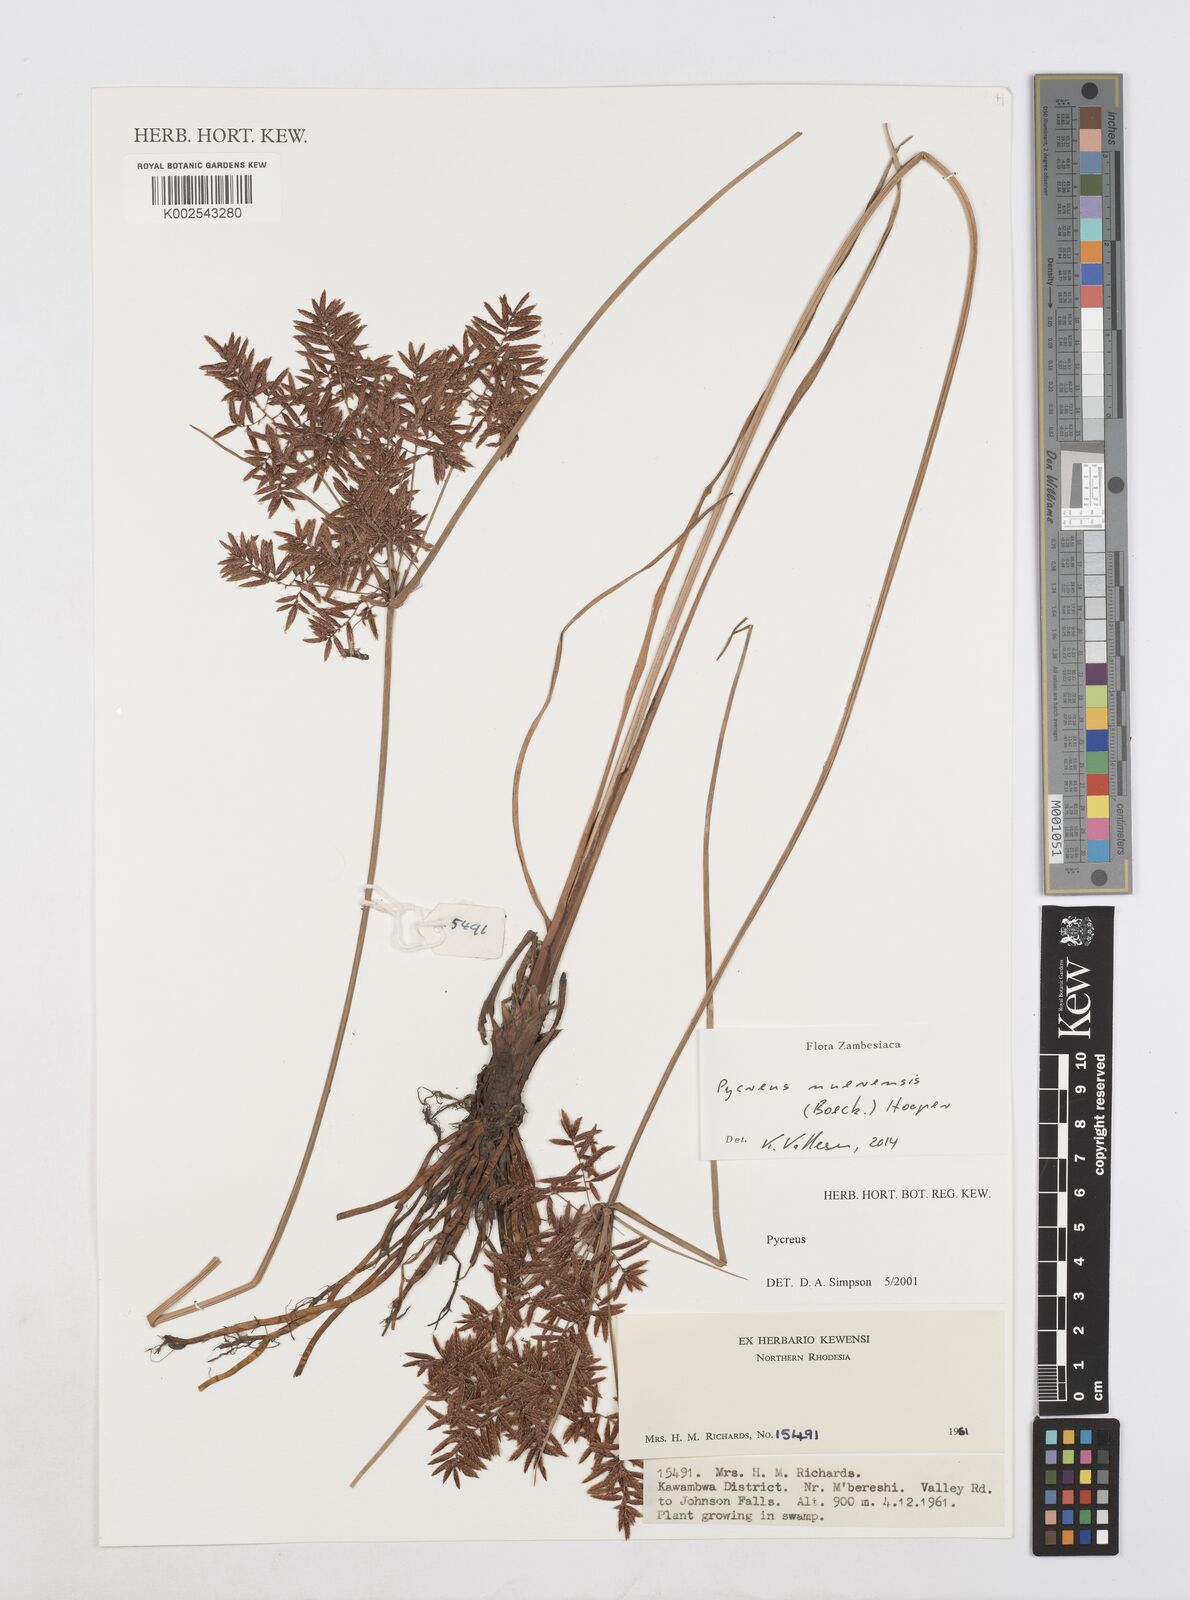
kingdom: Plantae
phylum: Tracheophyta
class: Liliopsida
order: Poales
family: Cyperaceae
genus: Cyperus
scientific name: Cyperus nuerensis
